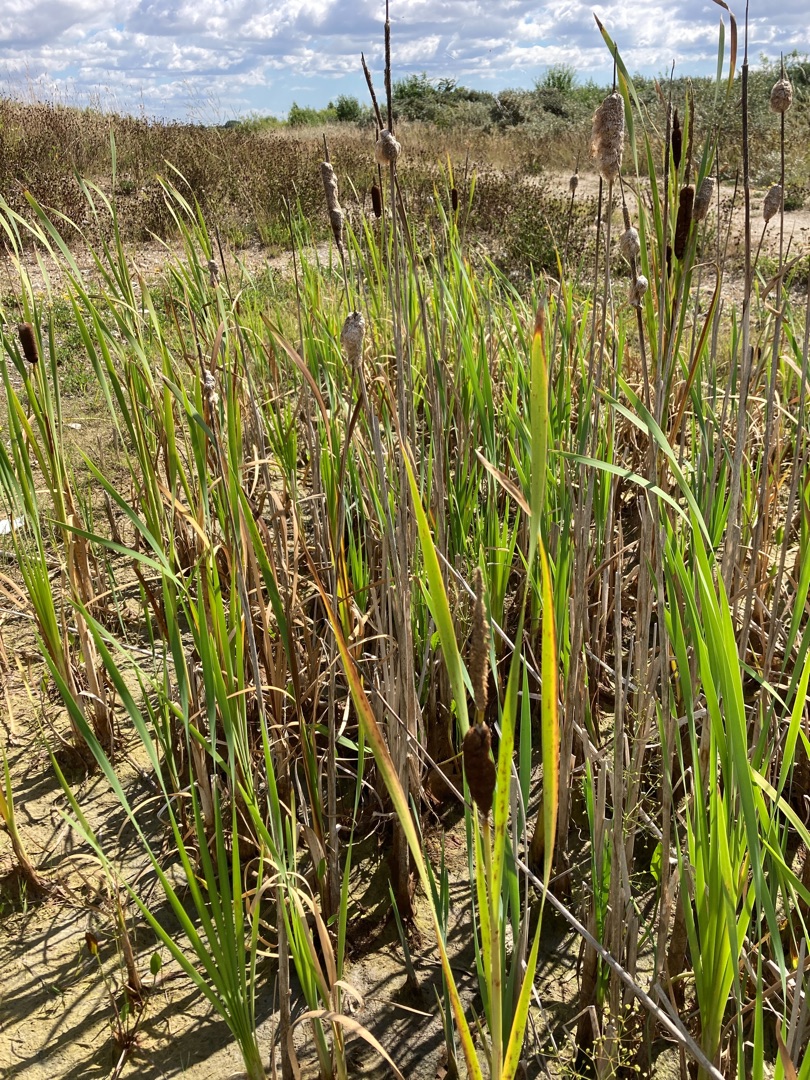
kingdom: Plantae
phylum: Tracheophyta
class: Liliopsida
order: Poales
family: Typhaceae
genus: Typha
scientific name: Typha angustifolia
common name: Smalbladet dunhammer
